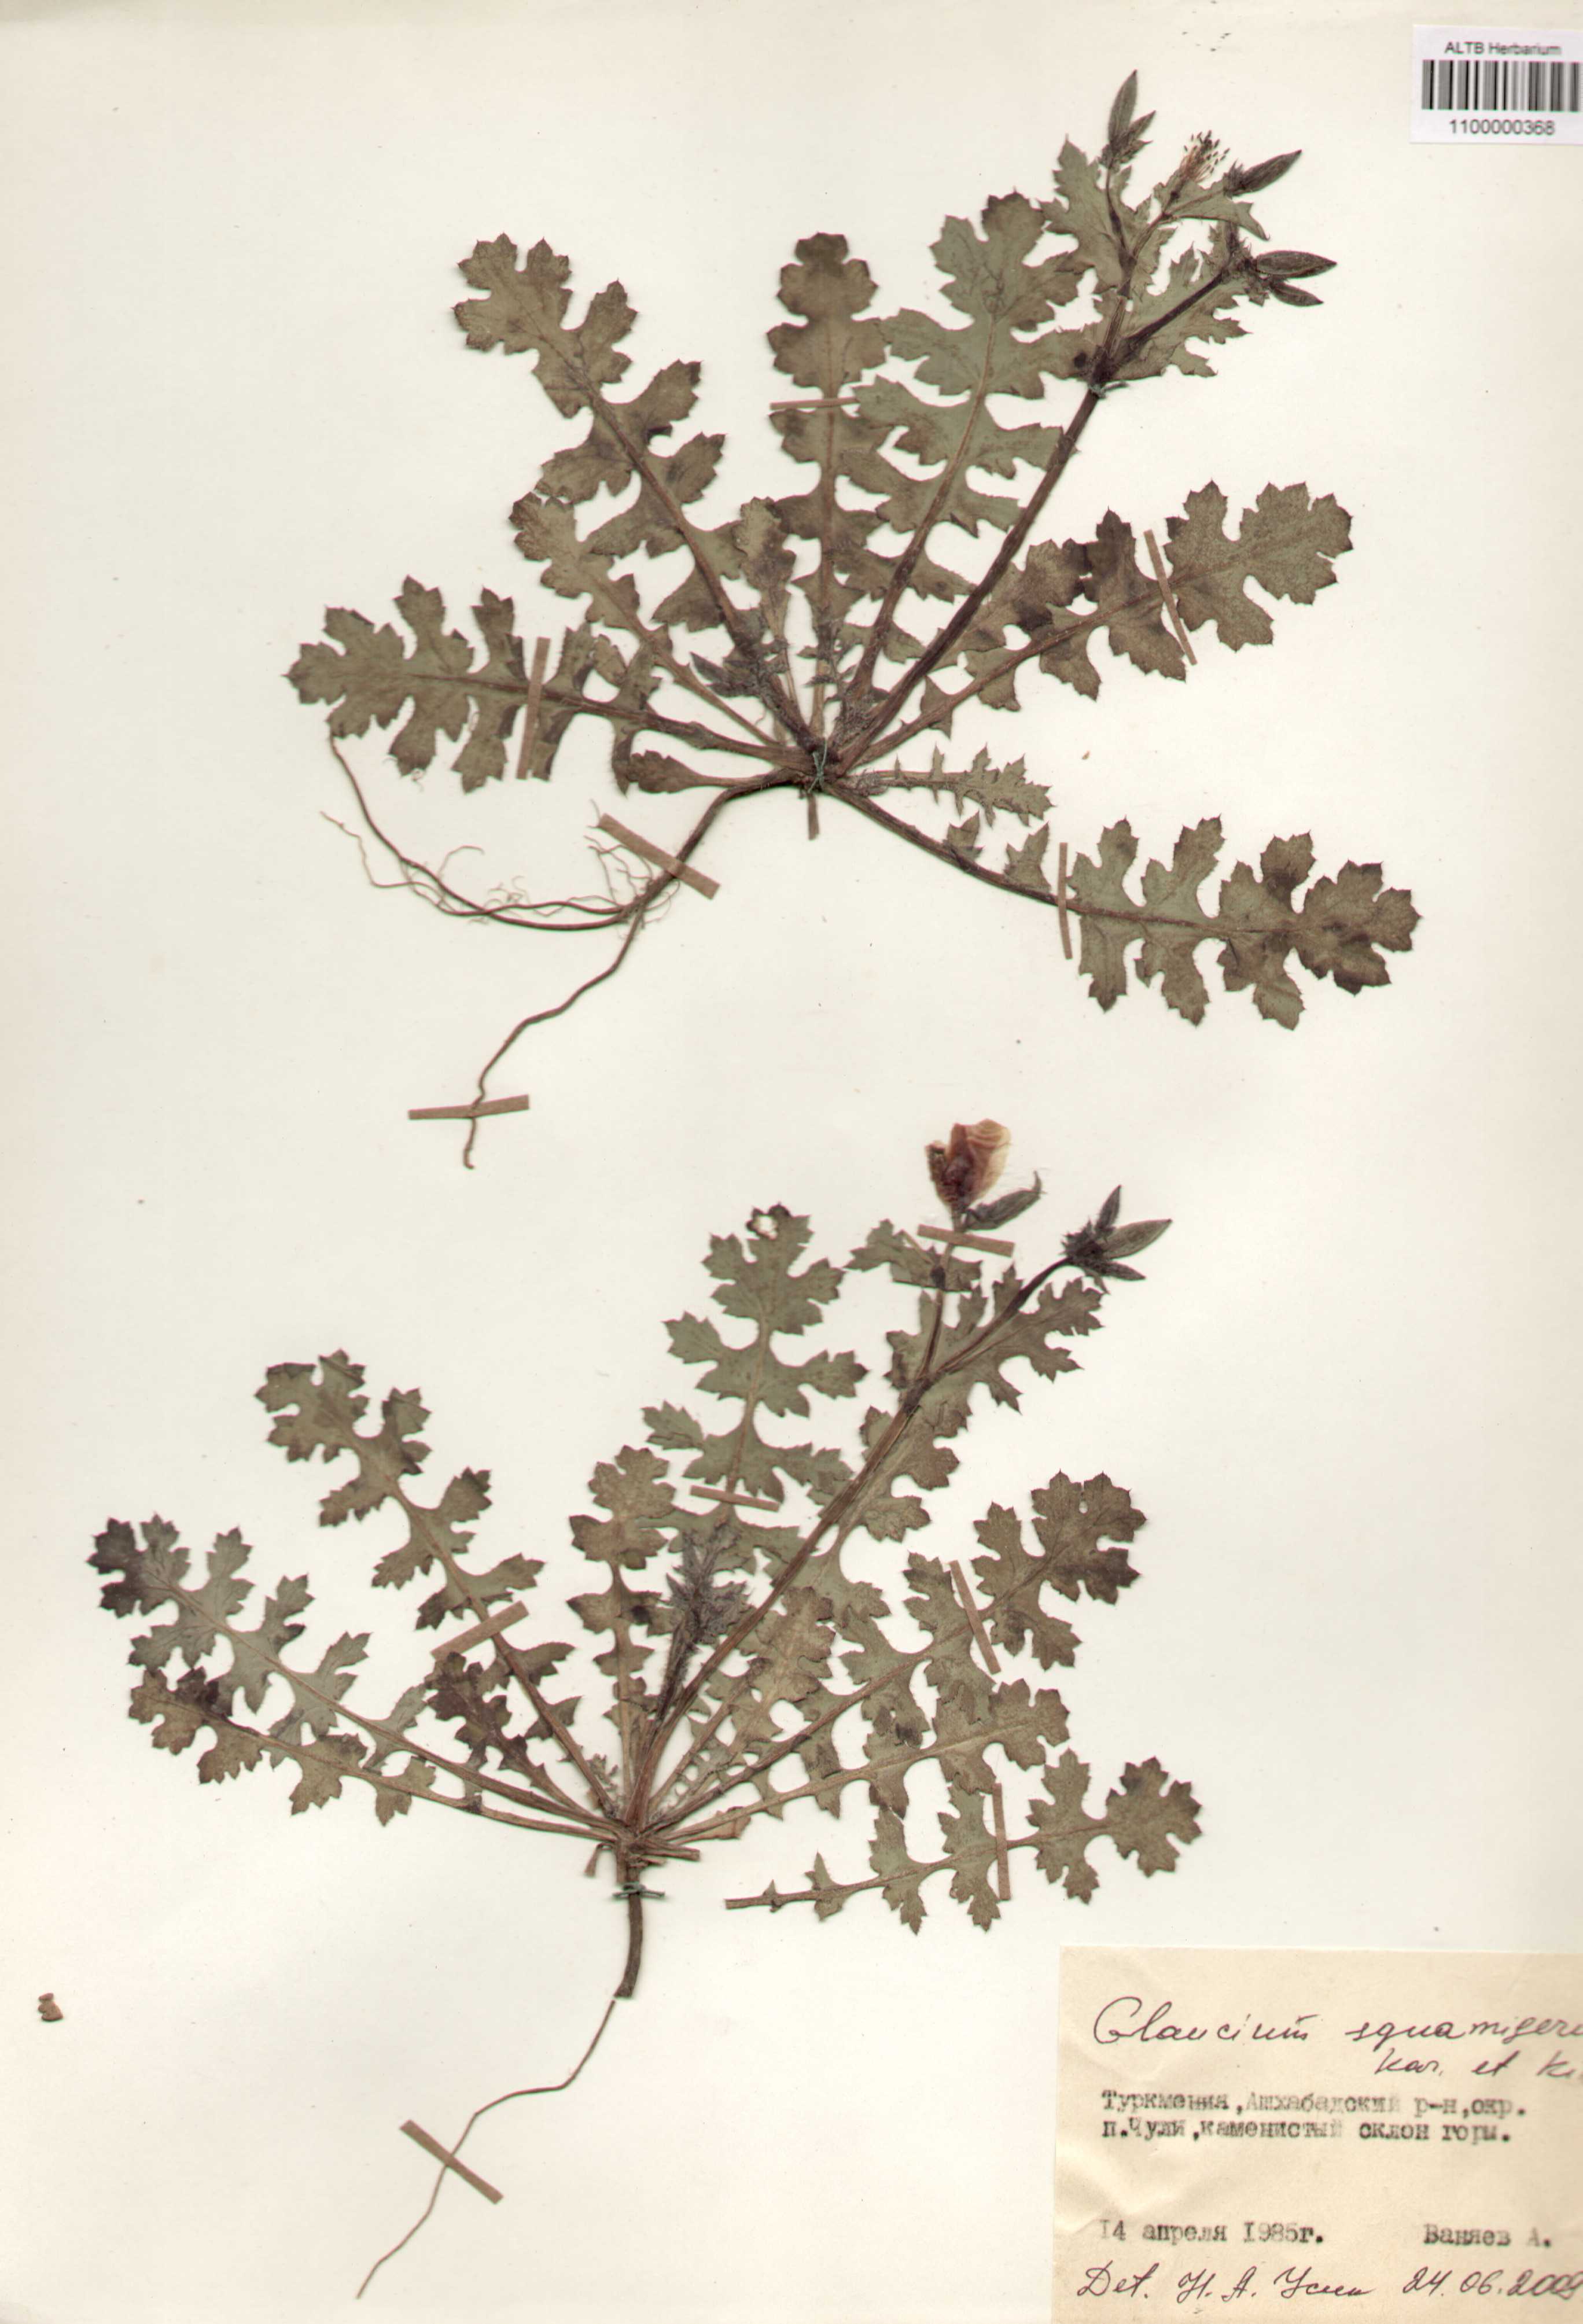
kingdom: Plantae
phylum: Tracheophyta
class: Magnoliopsida
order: Ranunculales
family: Papaveraceae
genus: Glaucium
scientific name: Glaucium squamigerum
